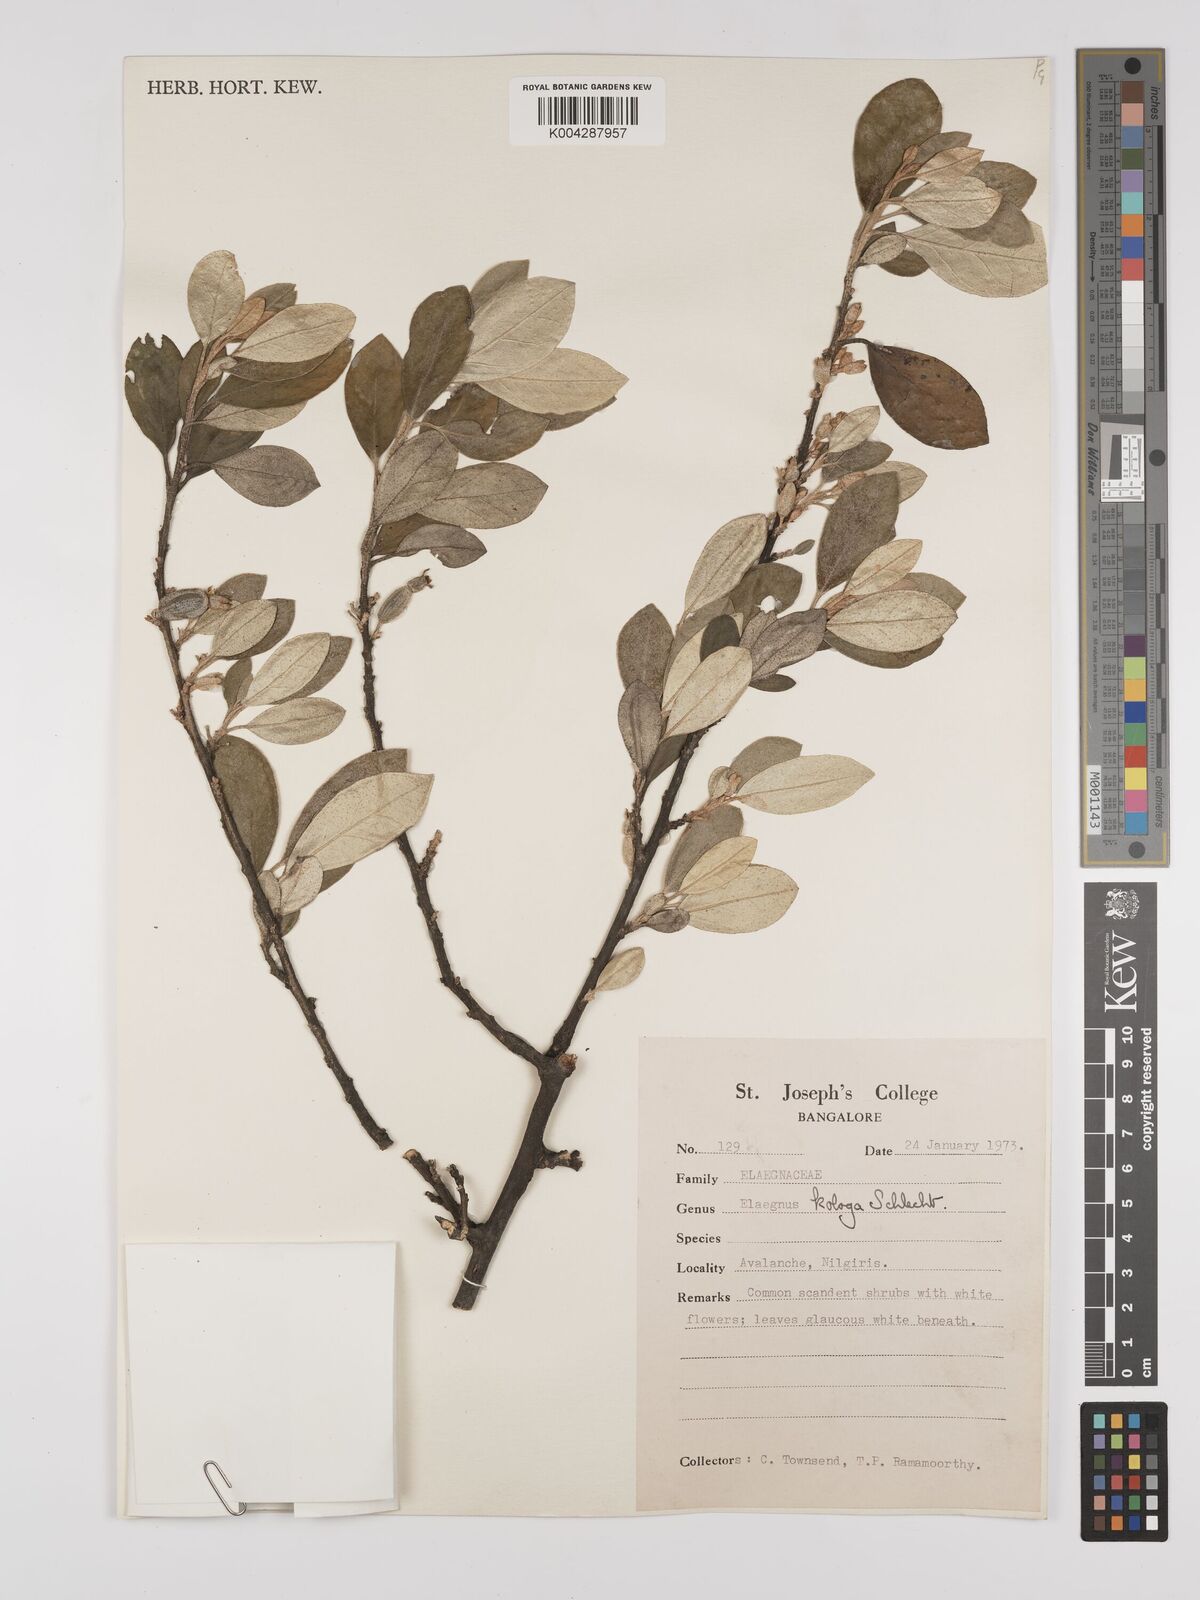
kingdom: Plantae
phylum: Tracheophyta
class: Magnoliopsida
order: Rosales
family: Elaeagnaceae
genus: Elaeagnus
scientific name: Elaeagnus latifolia
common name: Oleaster
